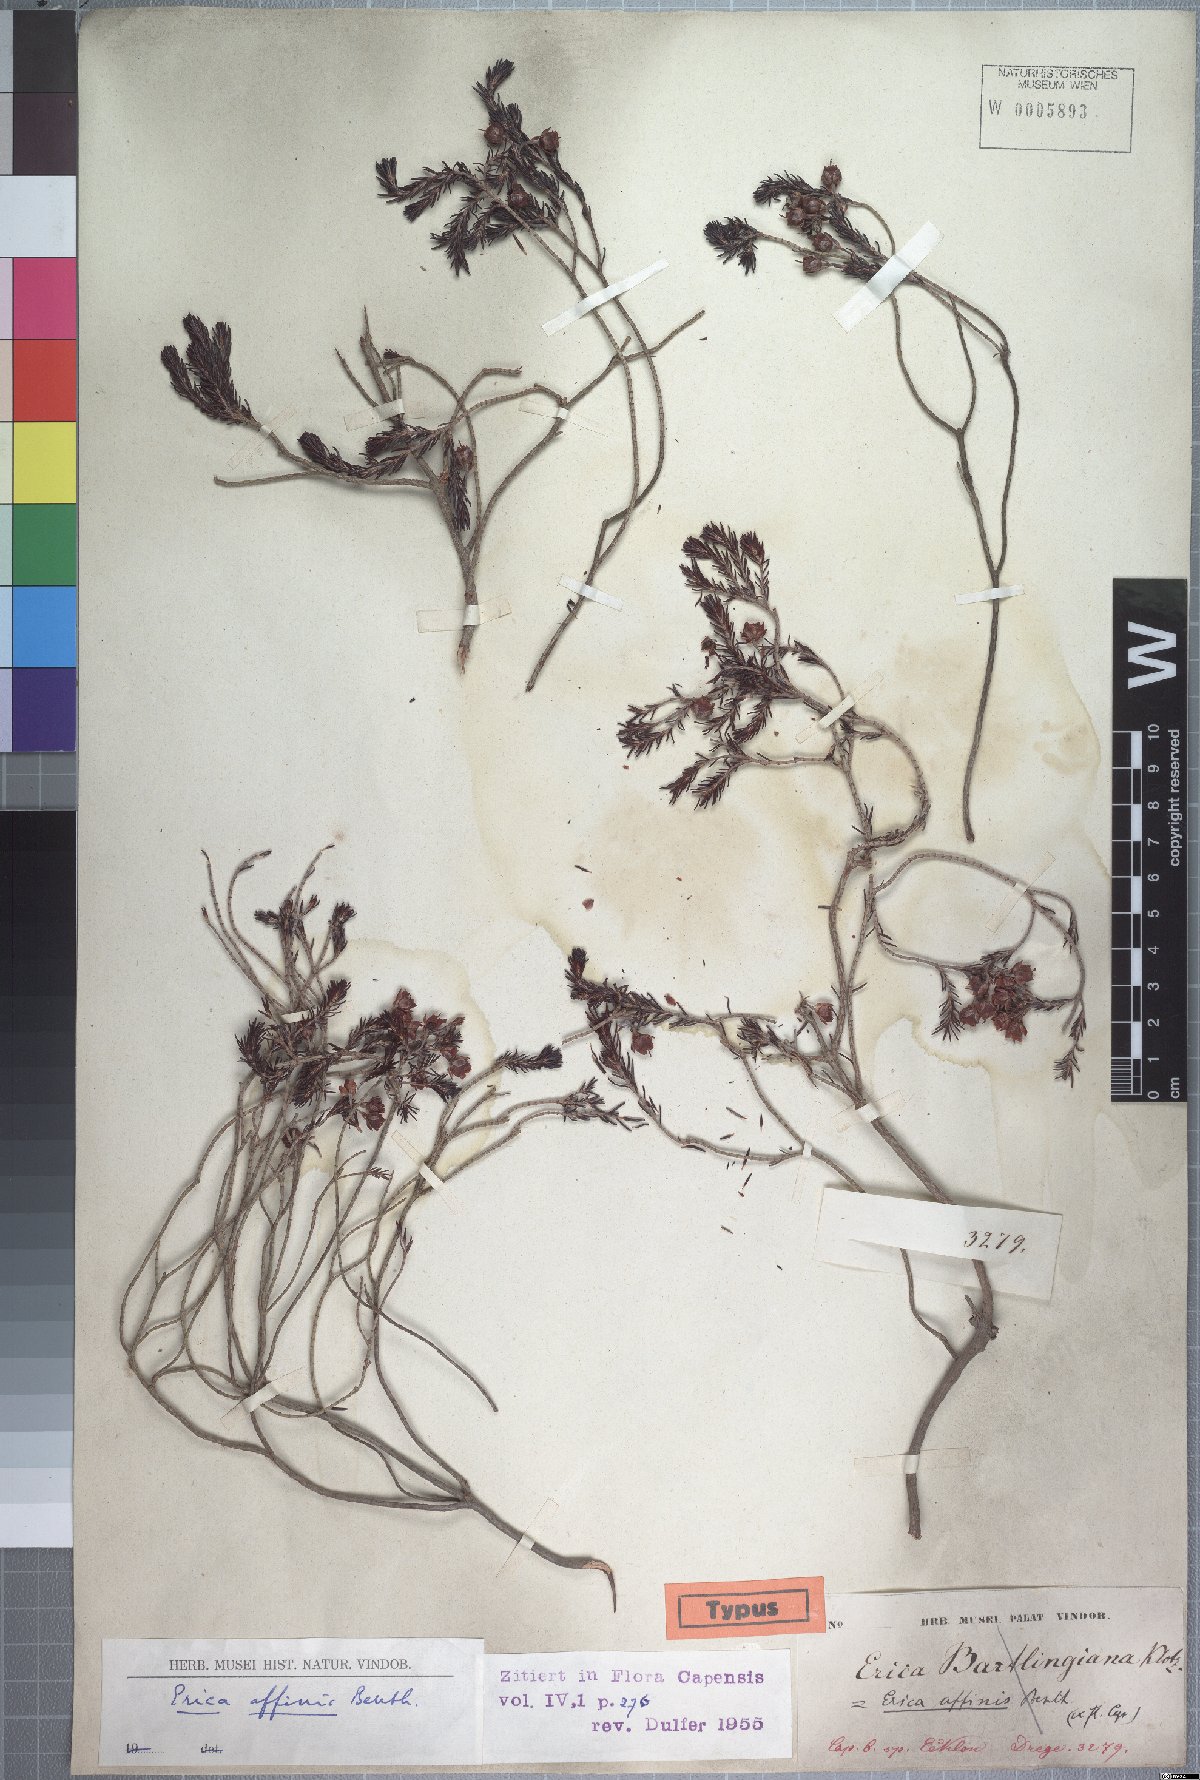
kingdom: Plantae
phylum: Tracheophyta
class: Magnoliopsida
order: Ericales
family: Ericaceae
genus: Erica
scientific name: Erica affinis
